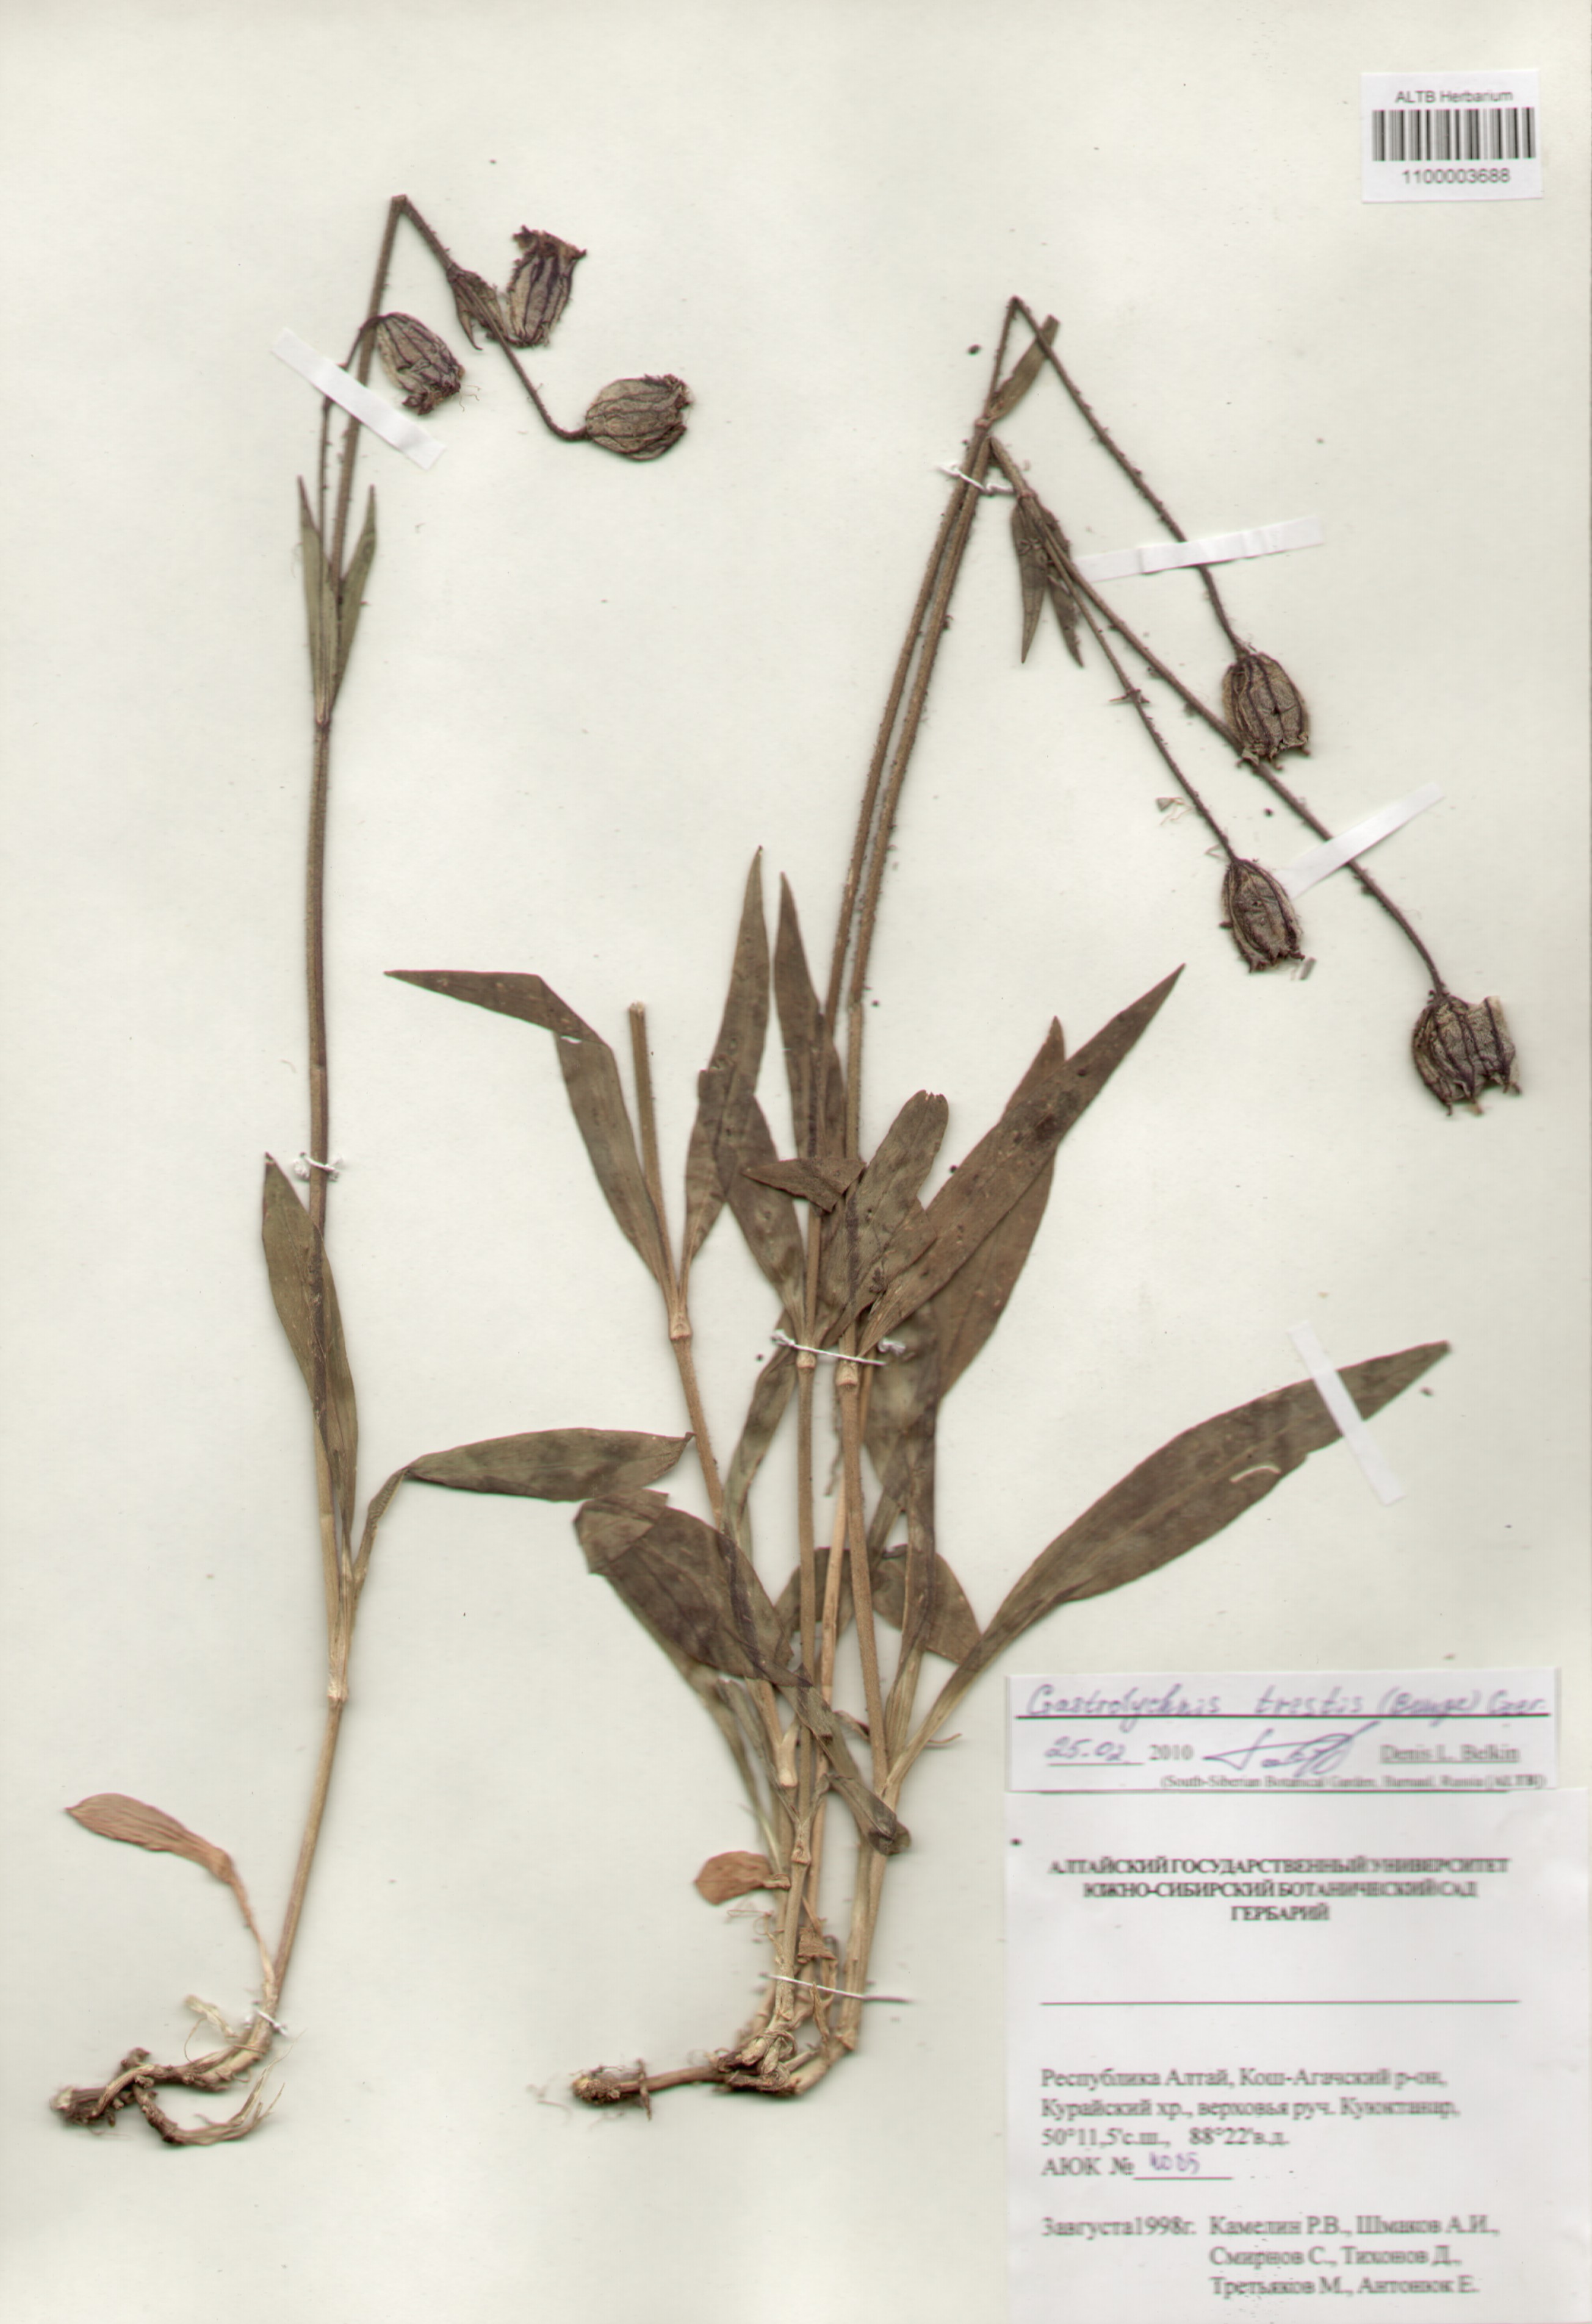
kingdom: Plantae
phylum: Tracheophyta
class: Magnoliopsida
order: Caryophyllales
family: Caryophyllaceae
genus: Silene
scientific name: Silene bungei
